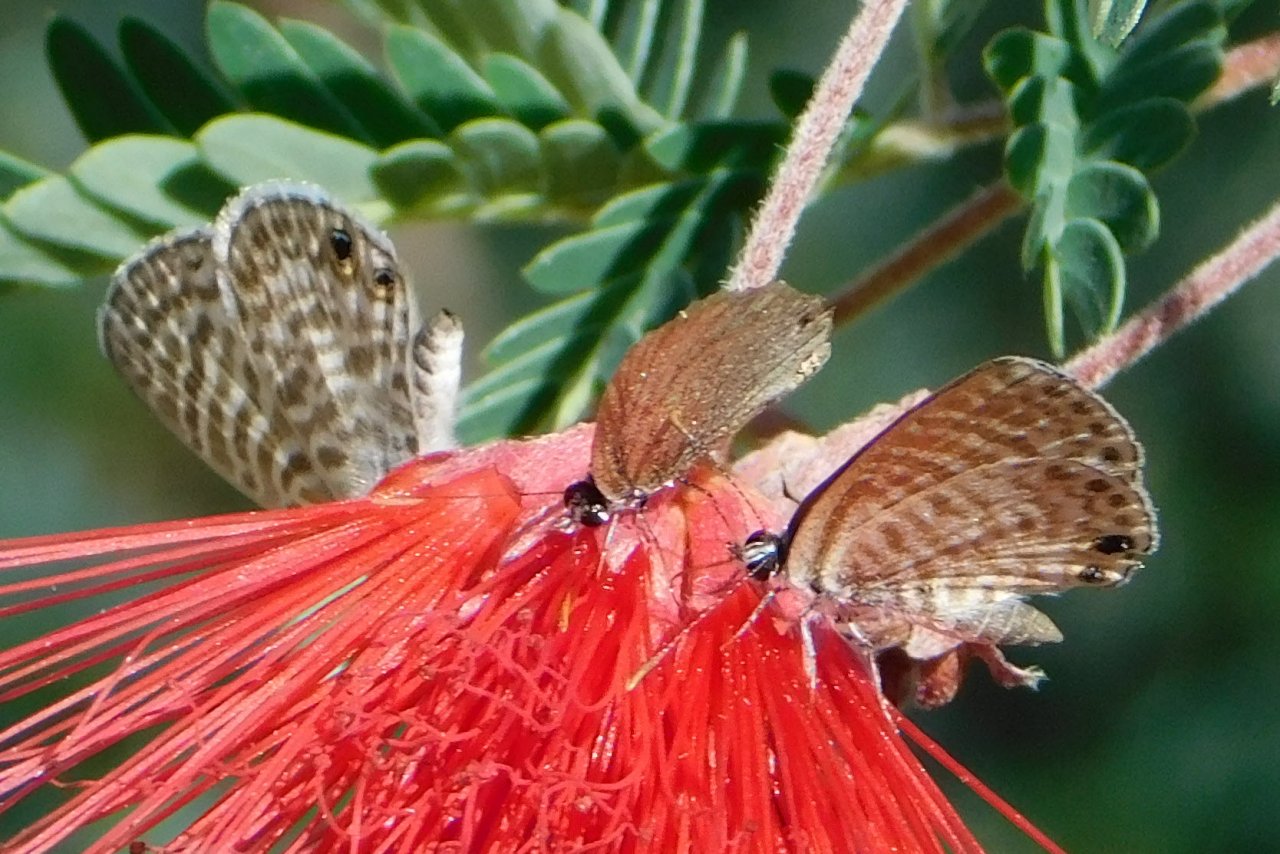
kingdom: Animalia
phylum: Arthropoda
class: Insecta
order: Lepidoptera
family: Lycaenidae
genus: Leptotes
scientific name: Leptotes marina
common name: Marine Blue
